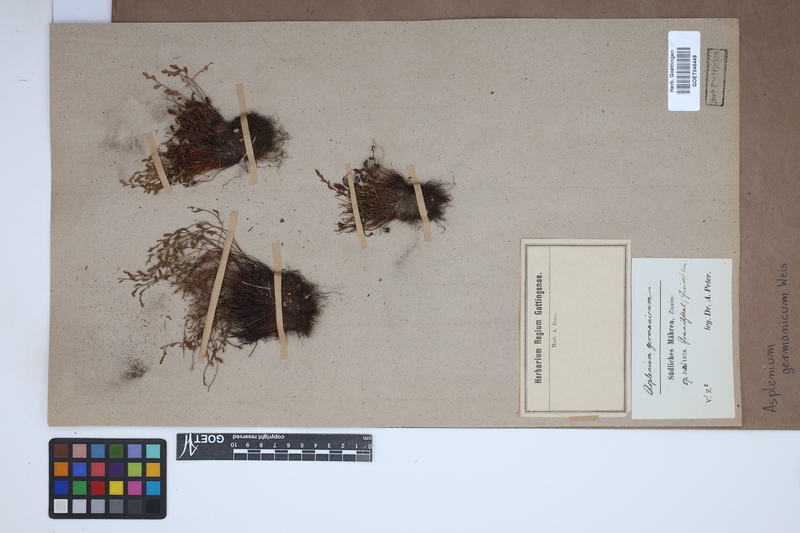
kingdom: Plantae
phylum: Tracheophyta
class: Polypodiopsida
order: Polypodiales
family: Aspleniaceae
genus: Asplenium
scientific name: Asplenium
